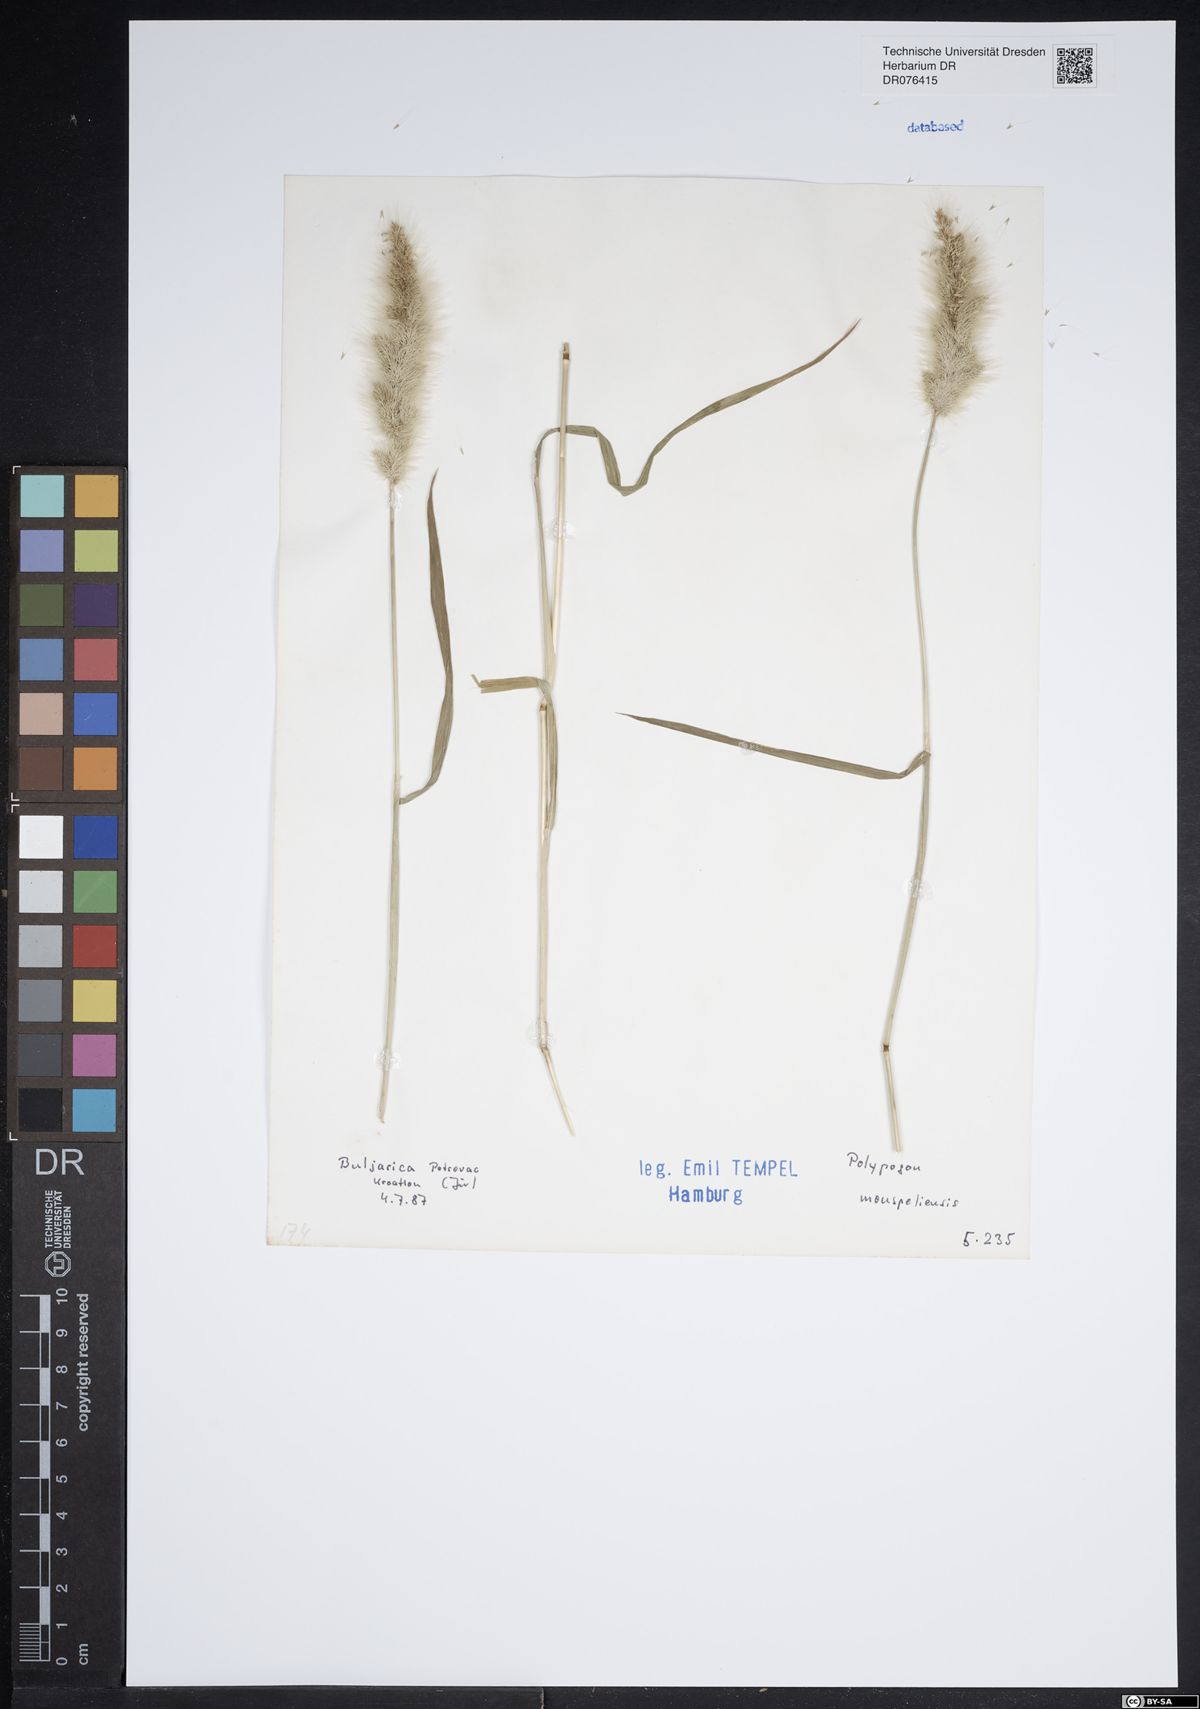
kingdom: Plantae
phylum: Tracheophyta
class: Liliopsida
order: Poales
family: Poaceae
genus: Polypogon
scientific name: Polypogon monspeliensis
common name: Annual rabbitsfoot grass
